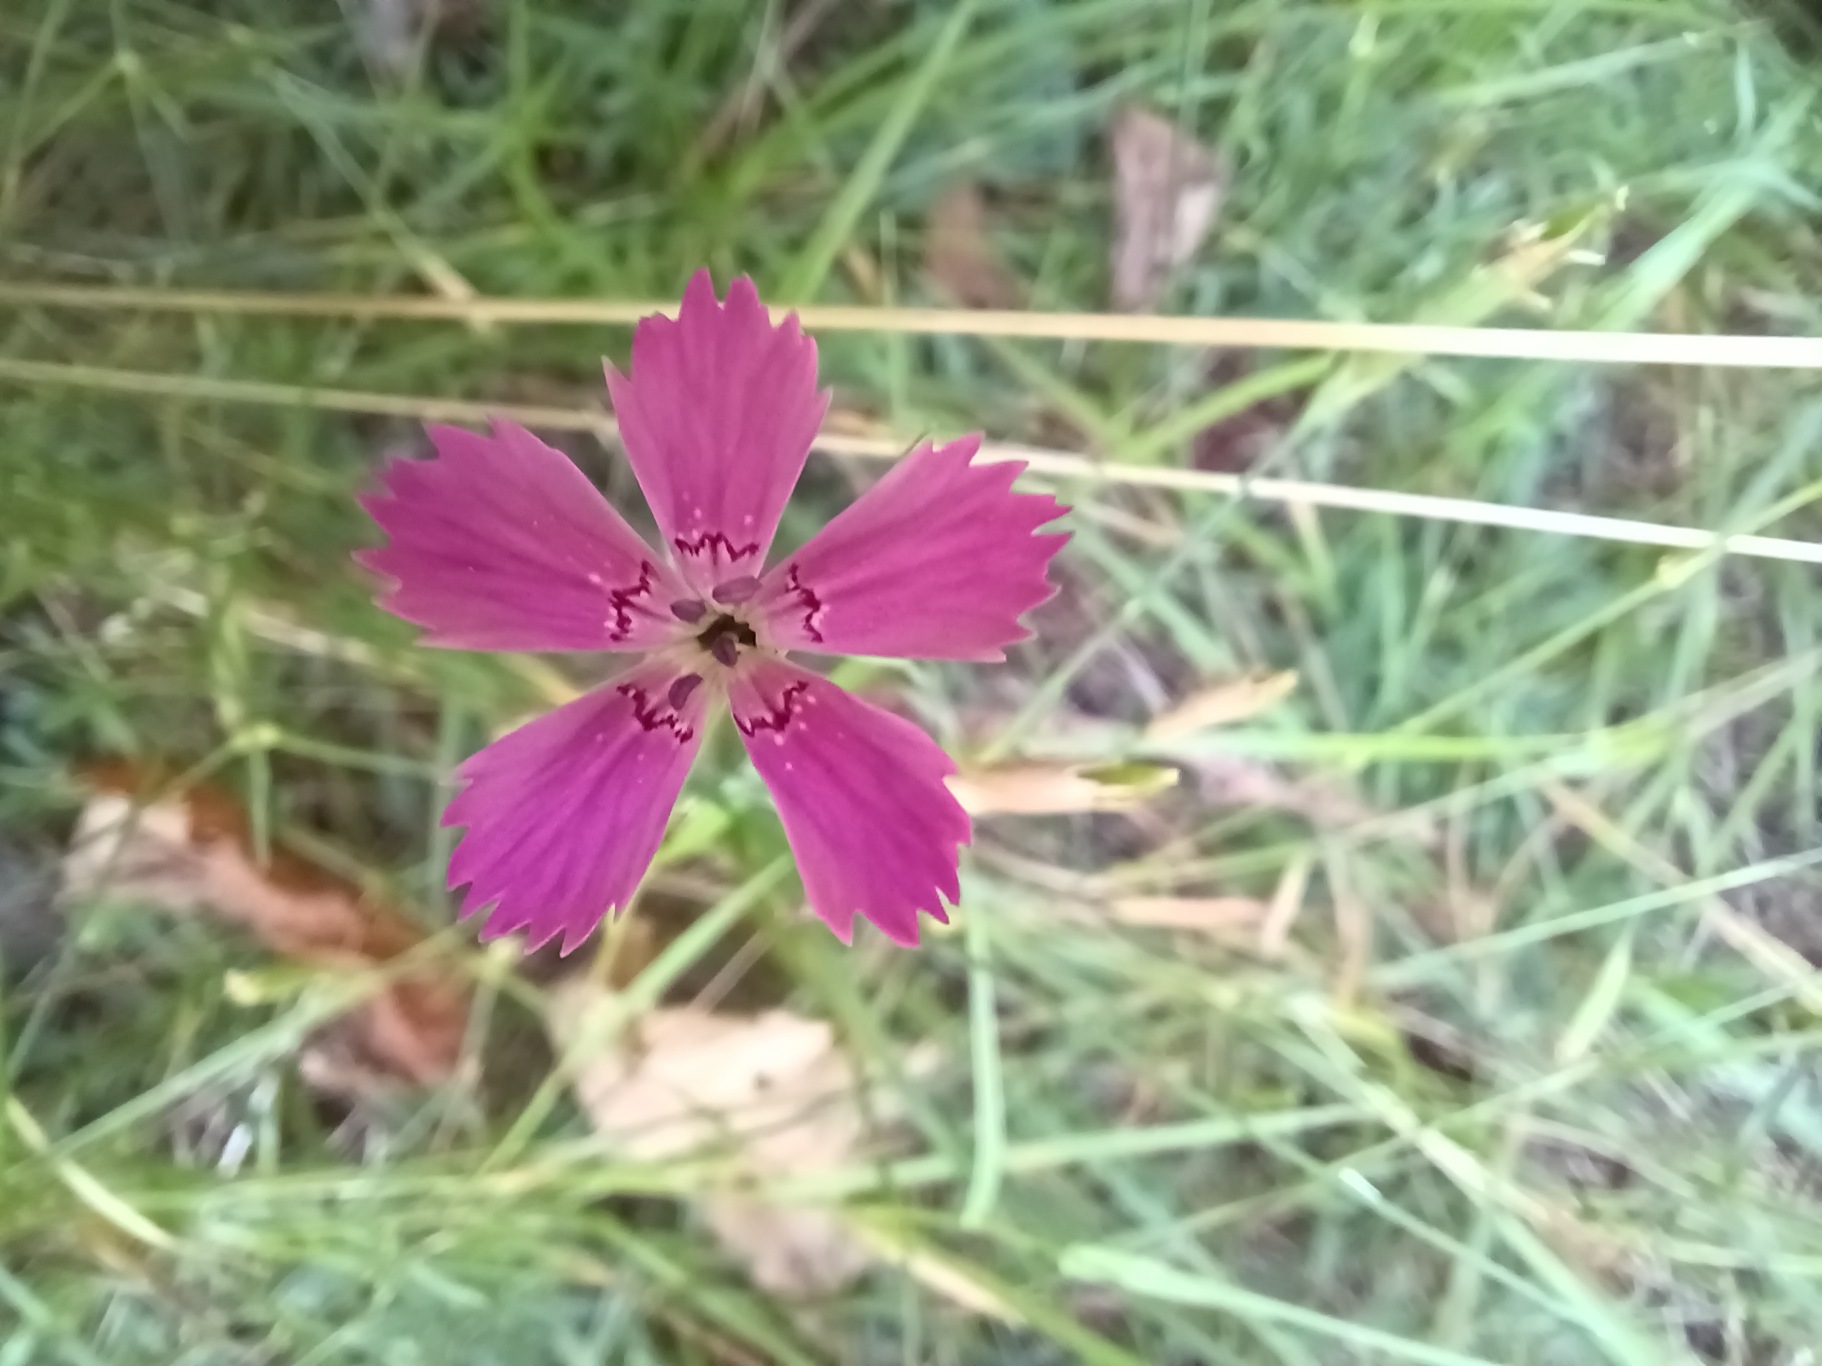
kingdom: Plantae
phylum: Tracheophyta
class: Magnoliopsida
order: Caryophyllales
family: Caryophyllaceae
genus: Dianthus
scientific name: Dianthus deltoides
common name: Bakke-nellike
